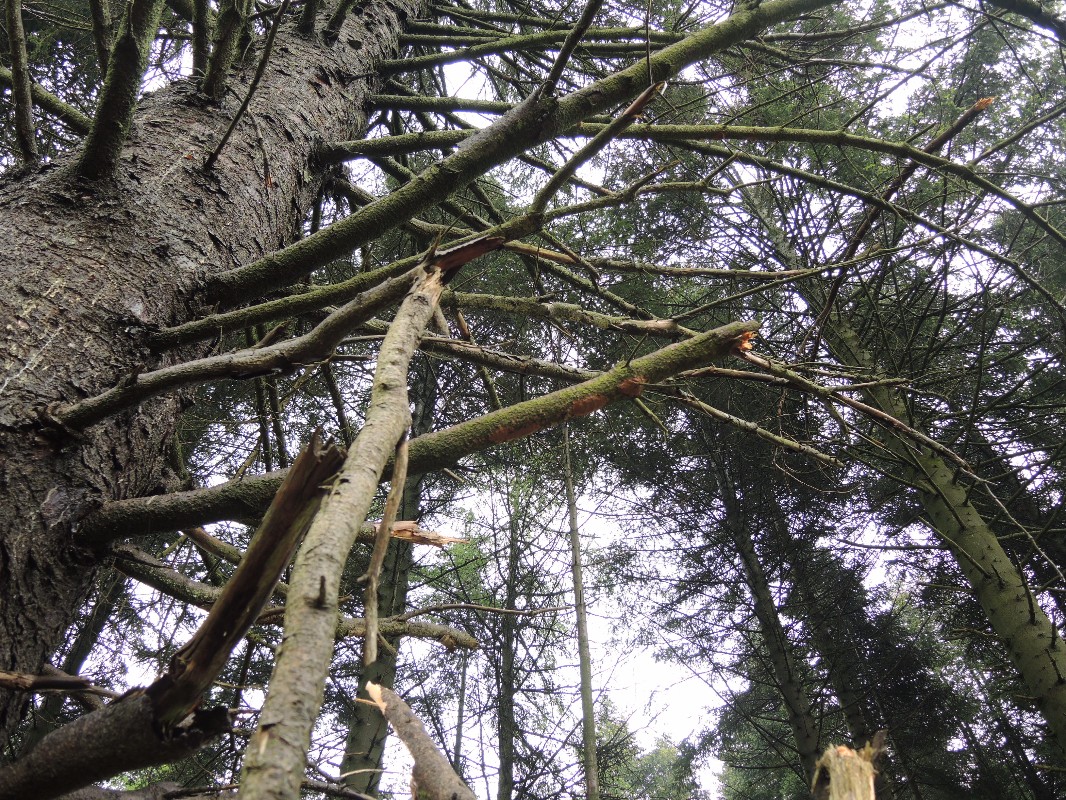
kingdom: Fungi
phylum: Basidiomycota
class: Agaricomycetes
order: Hymenochaetales
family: Hymenochaetaceae
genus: Fuscoporia
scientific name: Fuscoporia ferrea
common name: skorpe-ildporesvamp
